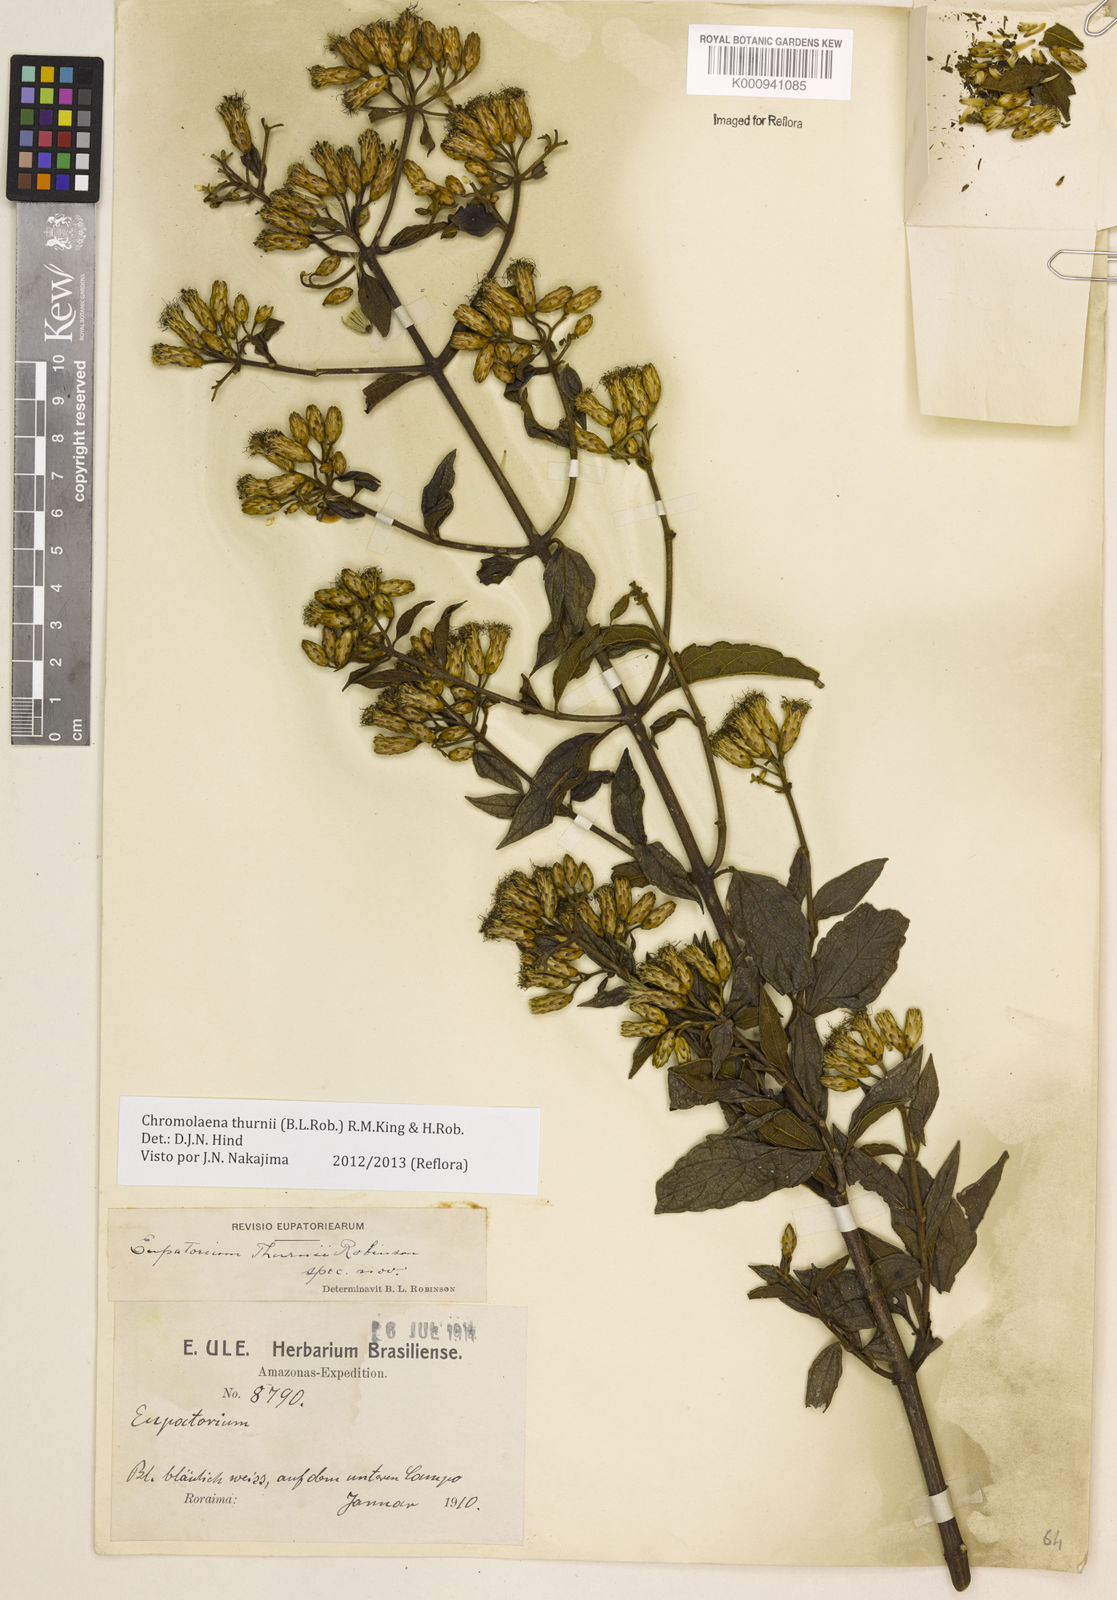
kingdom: Plantae
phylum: Tracheophyta
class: Magnoliopsida
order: Asterales
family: Asteraceae
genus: Chromolaena
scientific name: Chromolaena thurnii
